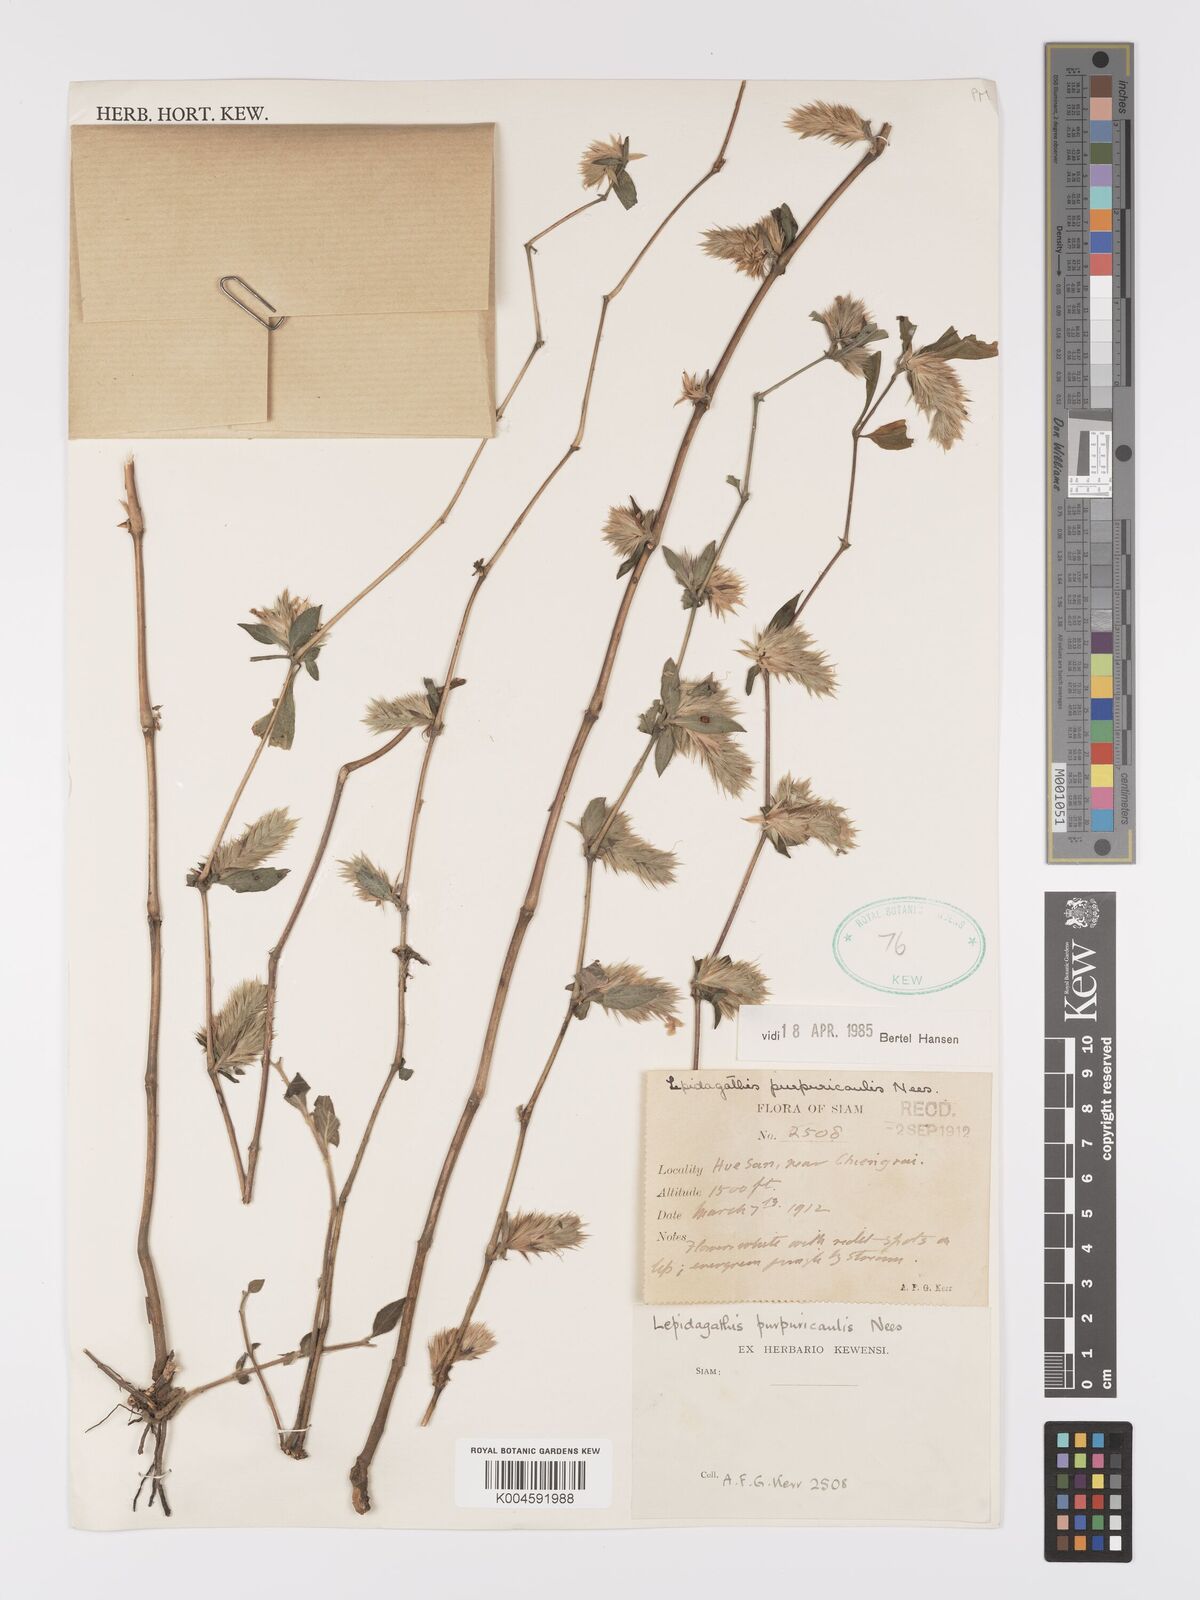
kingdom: Plantae
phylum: Tracheophyta
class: Magnoliopsida
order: Lamiales
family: Acanthaceae
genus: Lepidagathis
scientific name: Lepidagathis purpuricaulis
